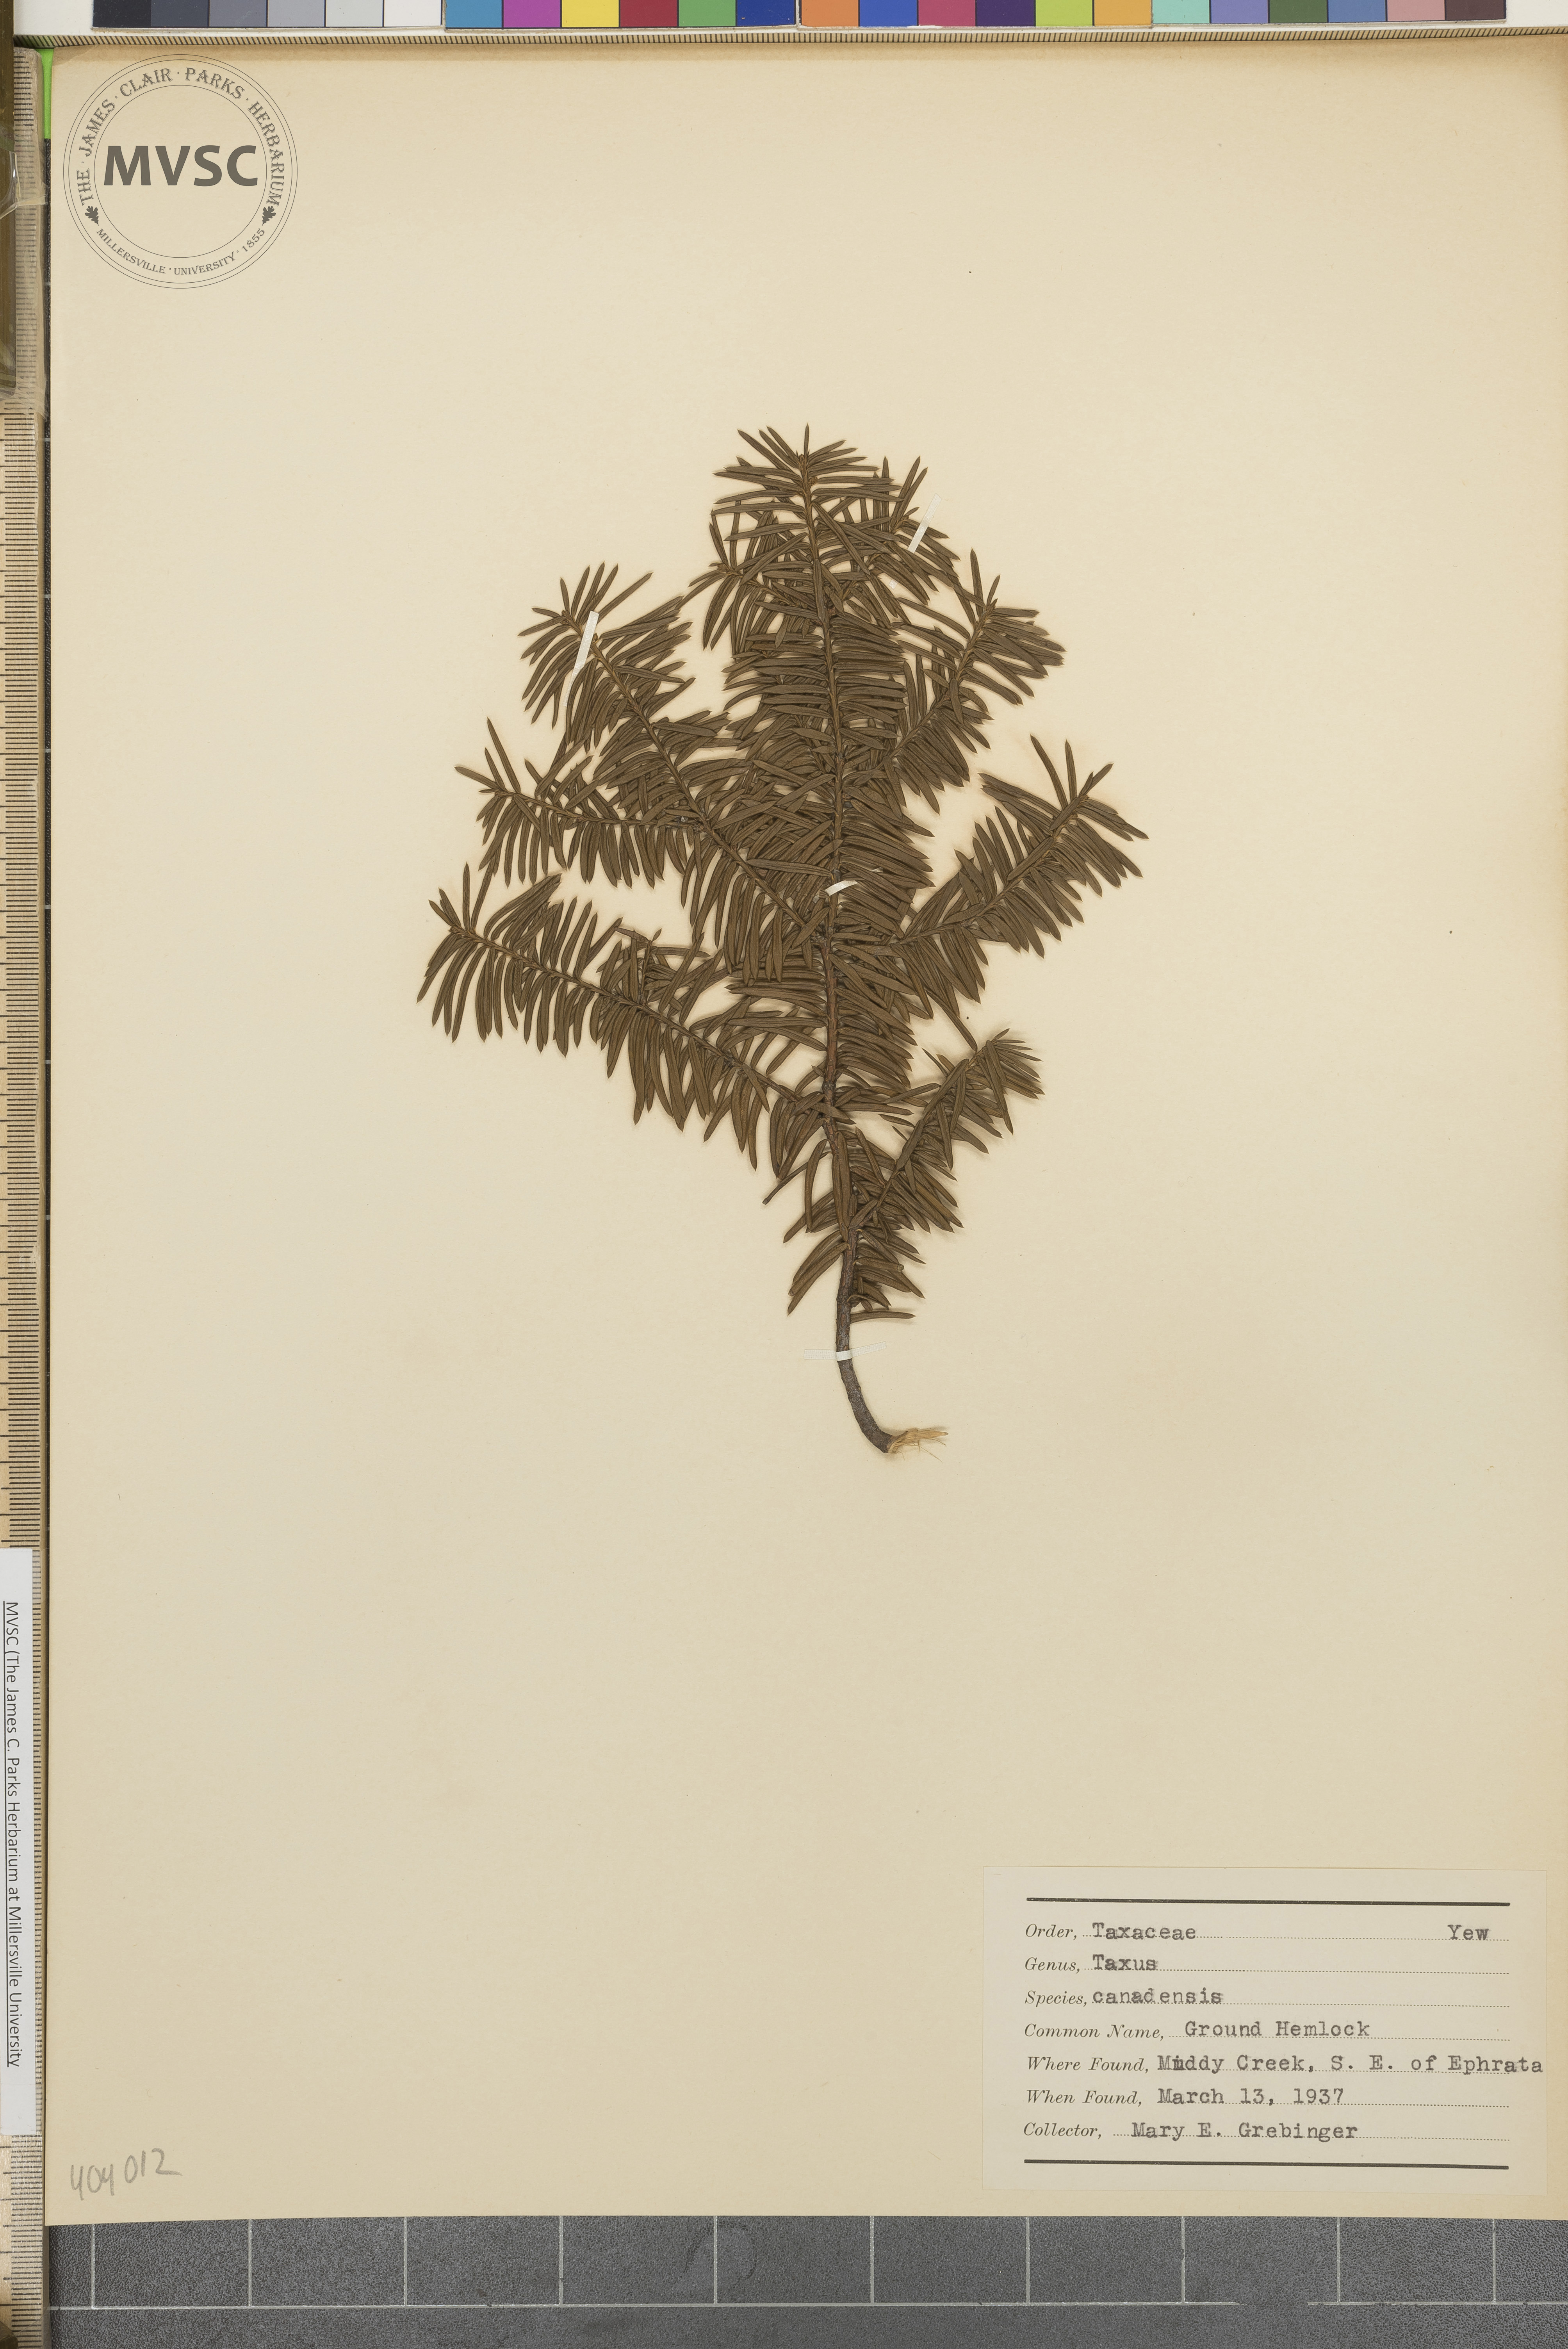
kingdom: Plantae
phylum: Tracheophyta
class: Pinopsida
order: Pinales
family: Taxaceae
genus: Taxus
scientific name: Taxus canadensis
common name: Canadian Yew
